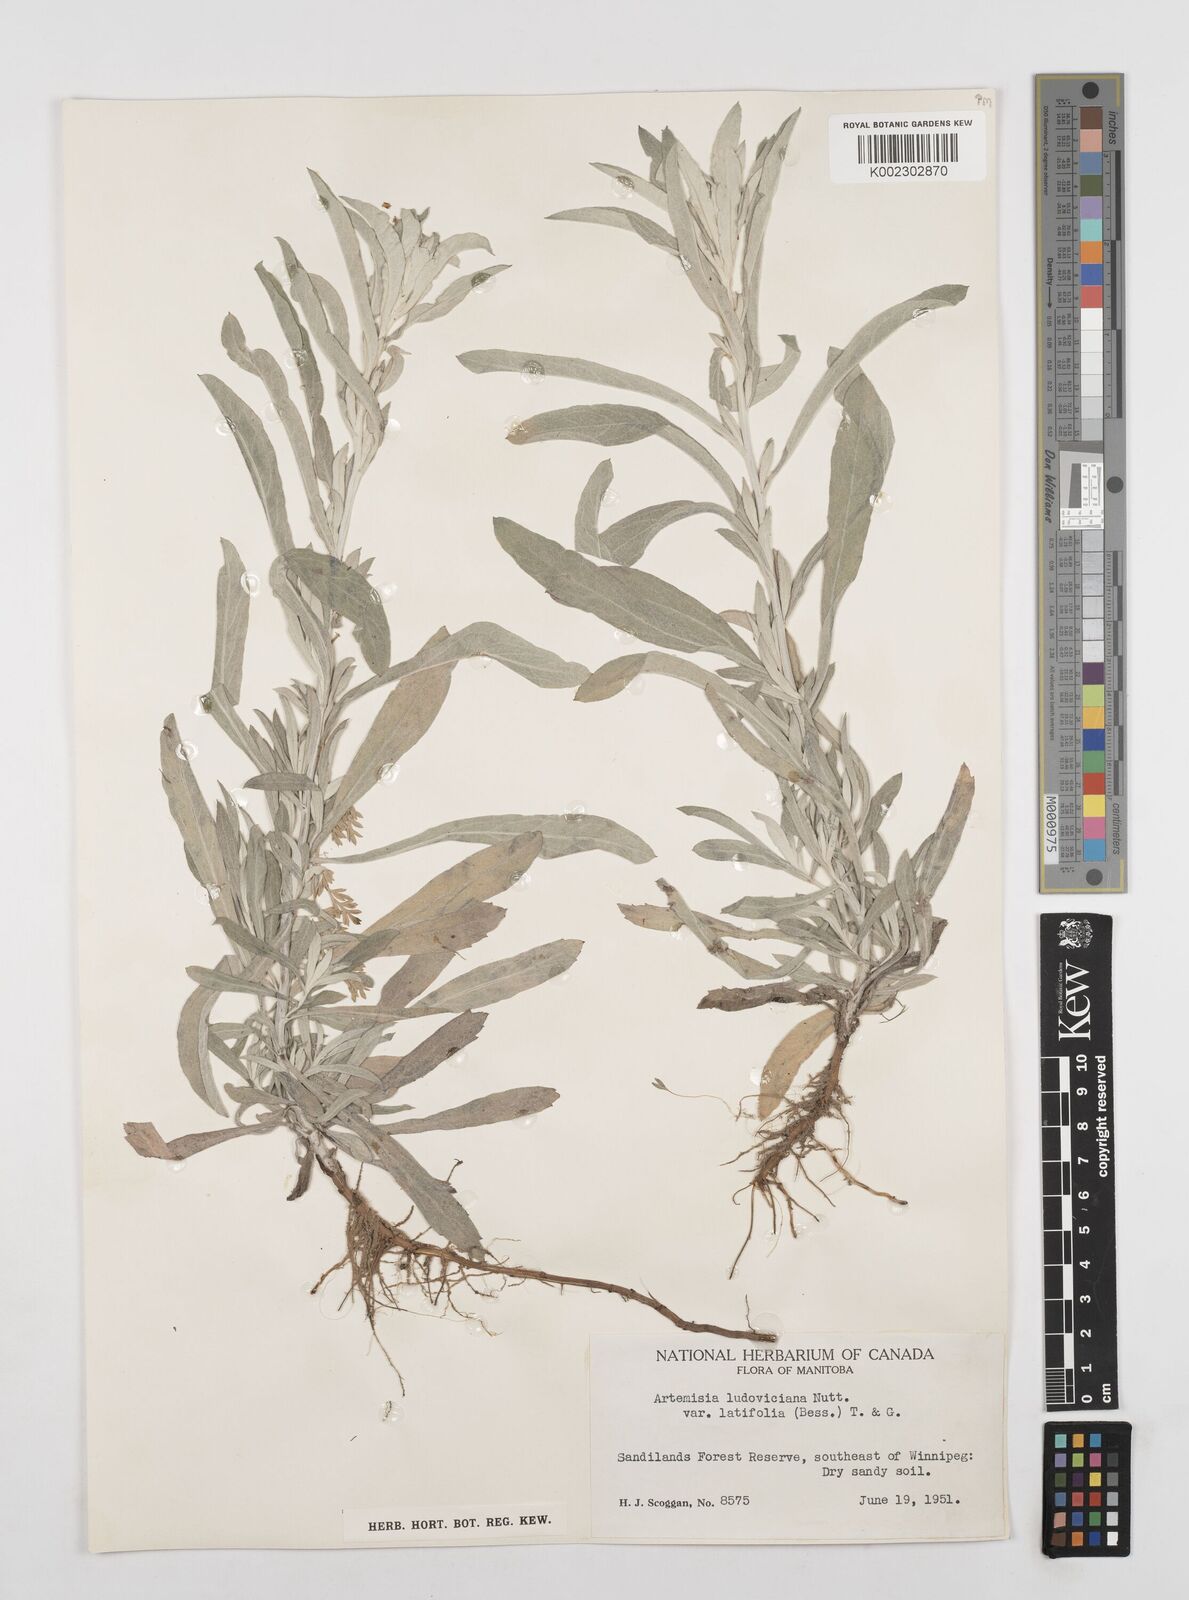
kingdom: Plantae
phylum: Tracheophyta
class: Magnoliopsida
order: Asterales
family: Asteraceae
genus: Artemisia
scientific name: Artemisia ludoviciana
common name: Western mugwort
